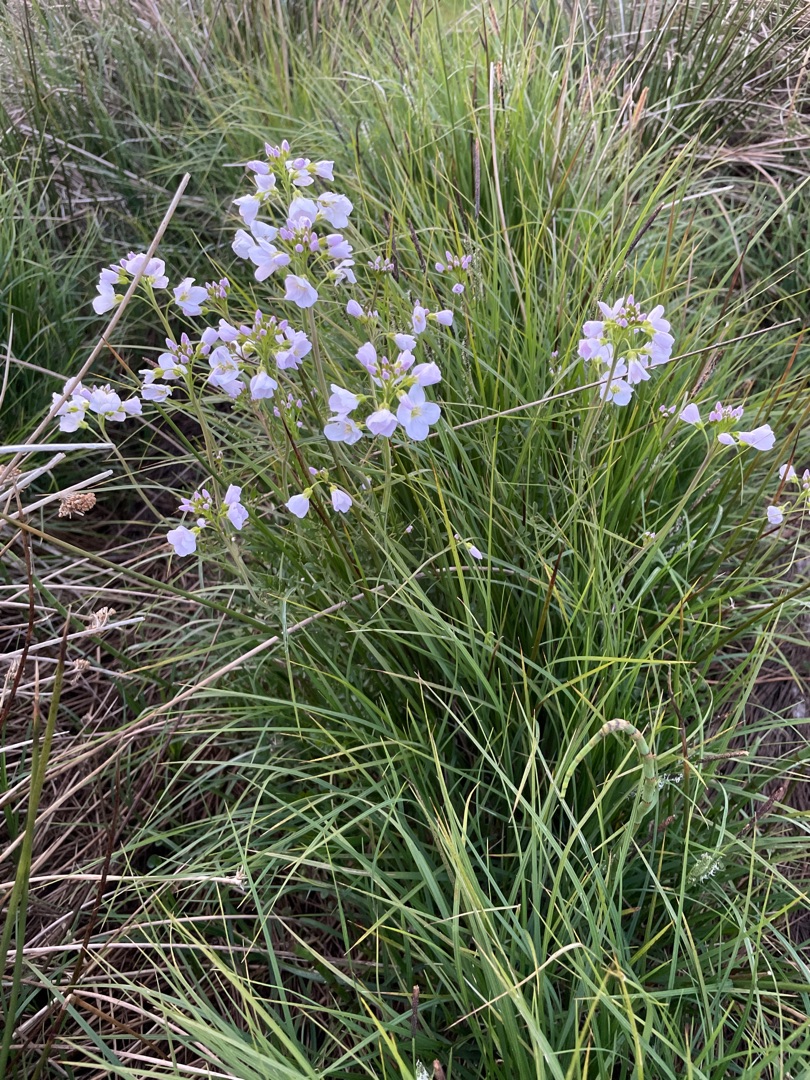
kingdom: Plantae
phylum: Tracheophyta
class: Magnoliopsida
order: Brassicales
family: Brassicaceae
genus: Cardamine
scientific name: Cardamine pratensis
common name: Engkarse
